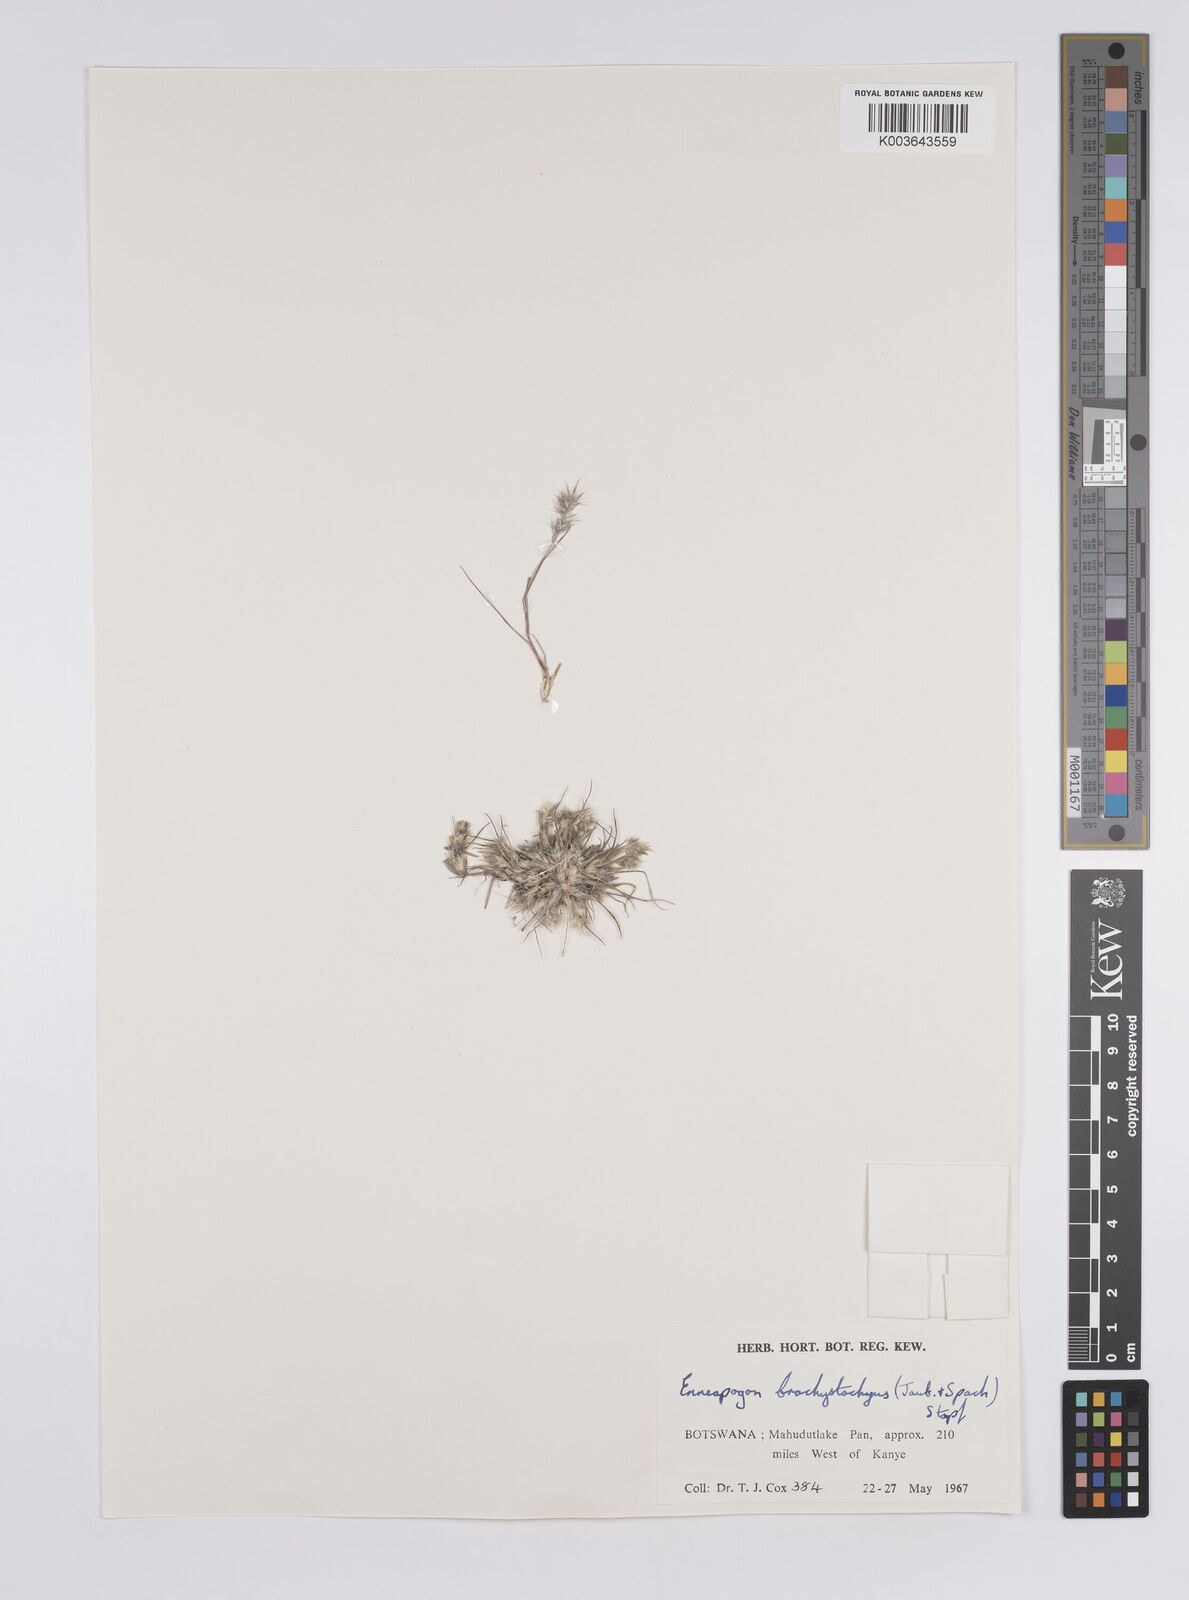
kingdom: Plantae
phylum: Tracheophyta
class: Liliopsida
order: Poales
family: Poaceae
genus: Enneapogon
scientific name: Enneapogon desvauxii
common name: Feather pappus grass
